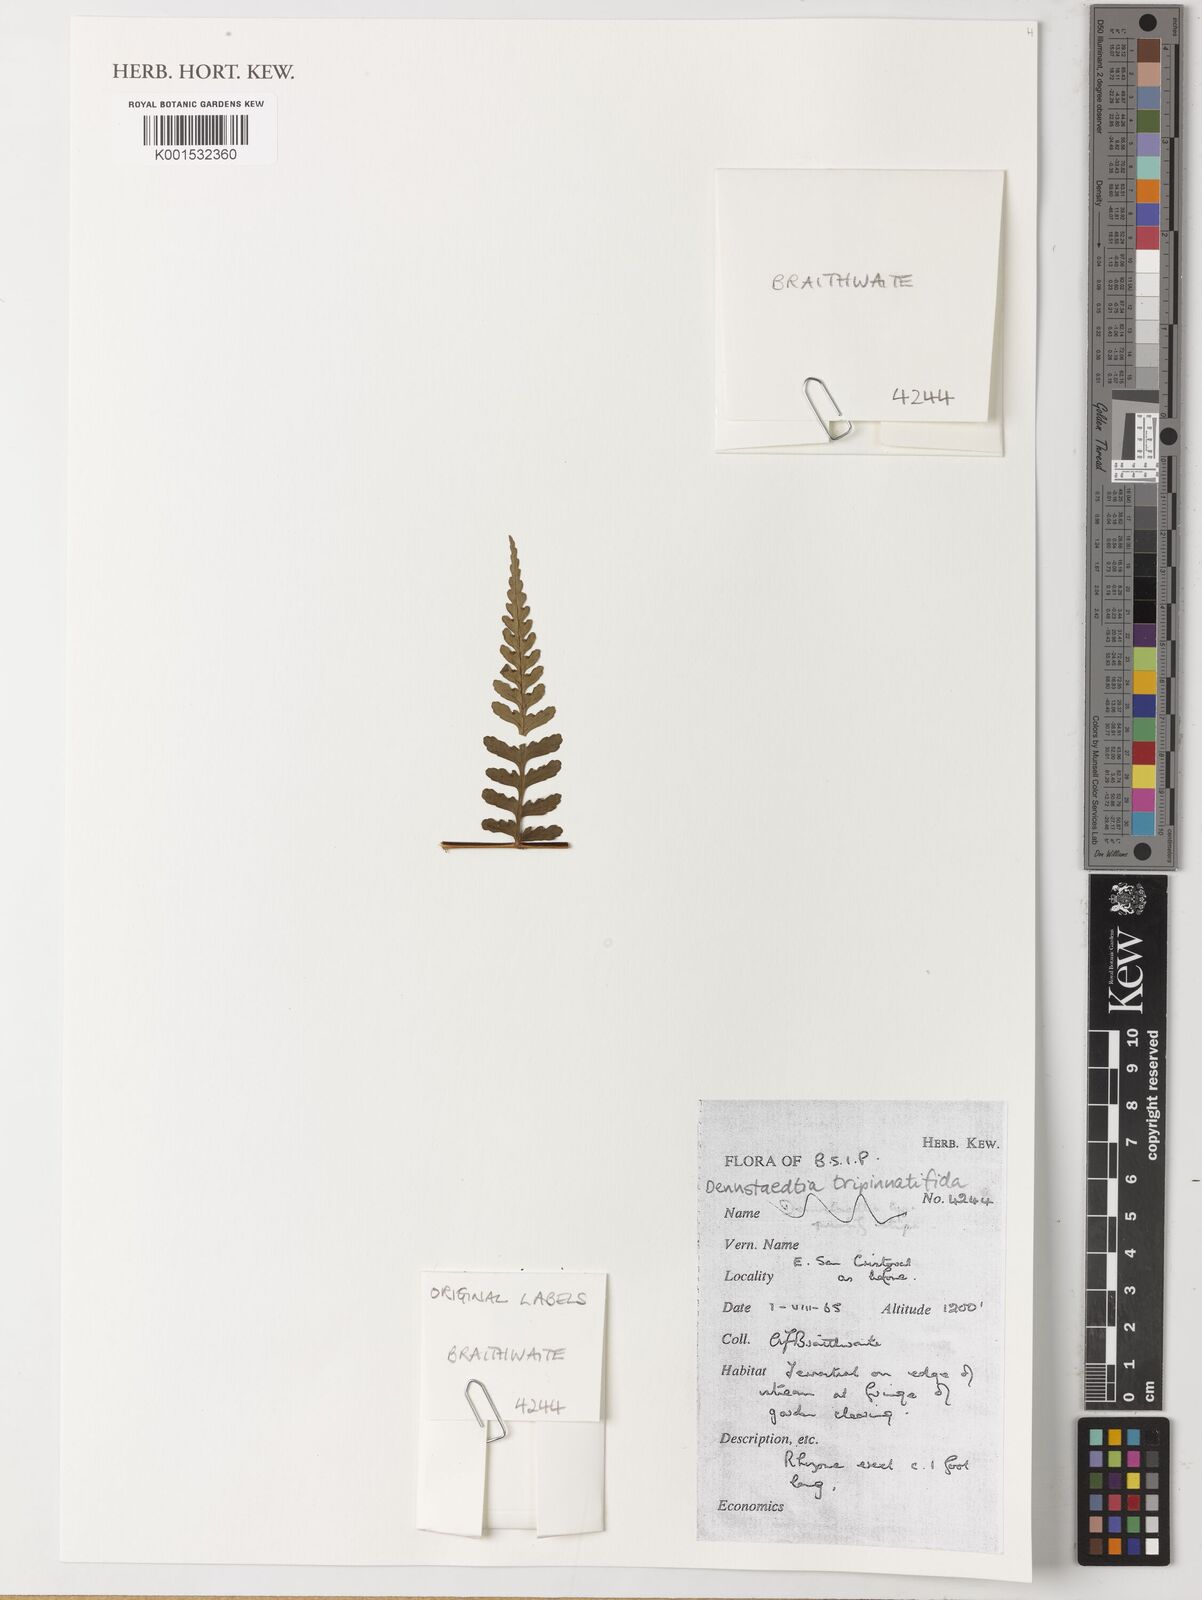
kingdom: Plantae
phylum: Tracheophyta
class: Polypodiopsida
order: Polypodiales
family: Dennstaedtiaceae
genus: Dennstaedtia
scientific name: Dennstaedtia glabrata
